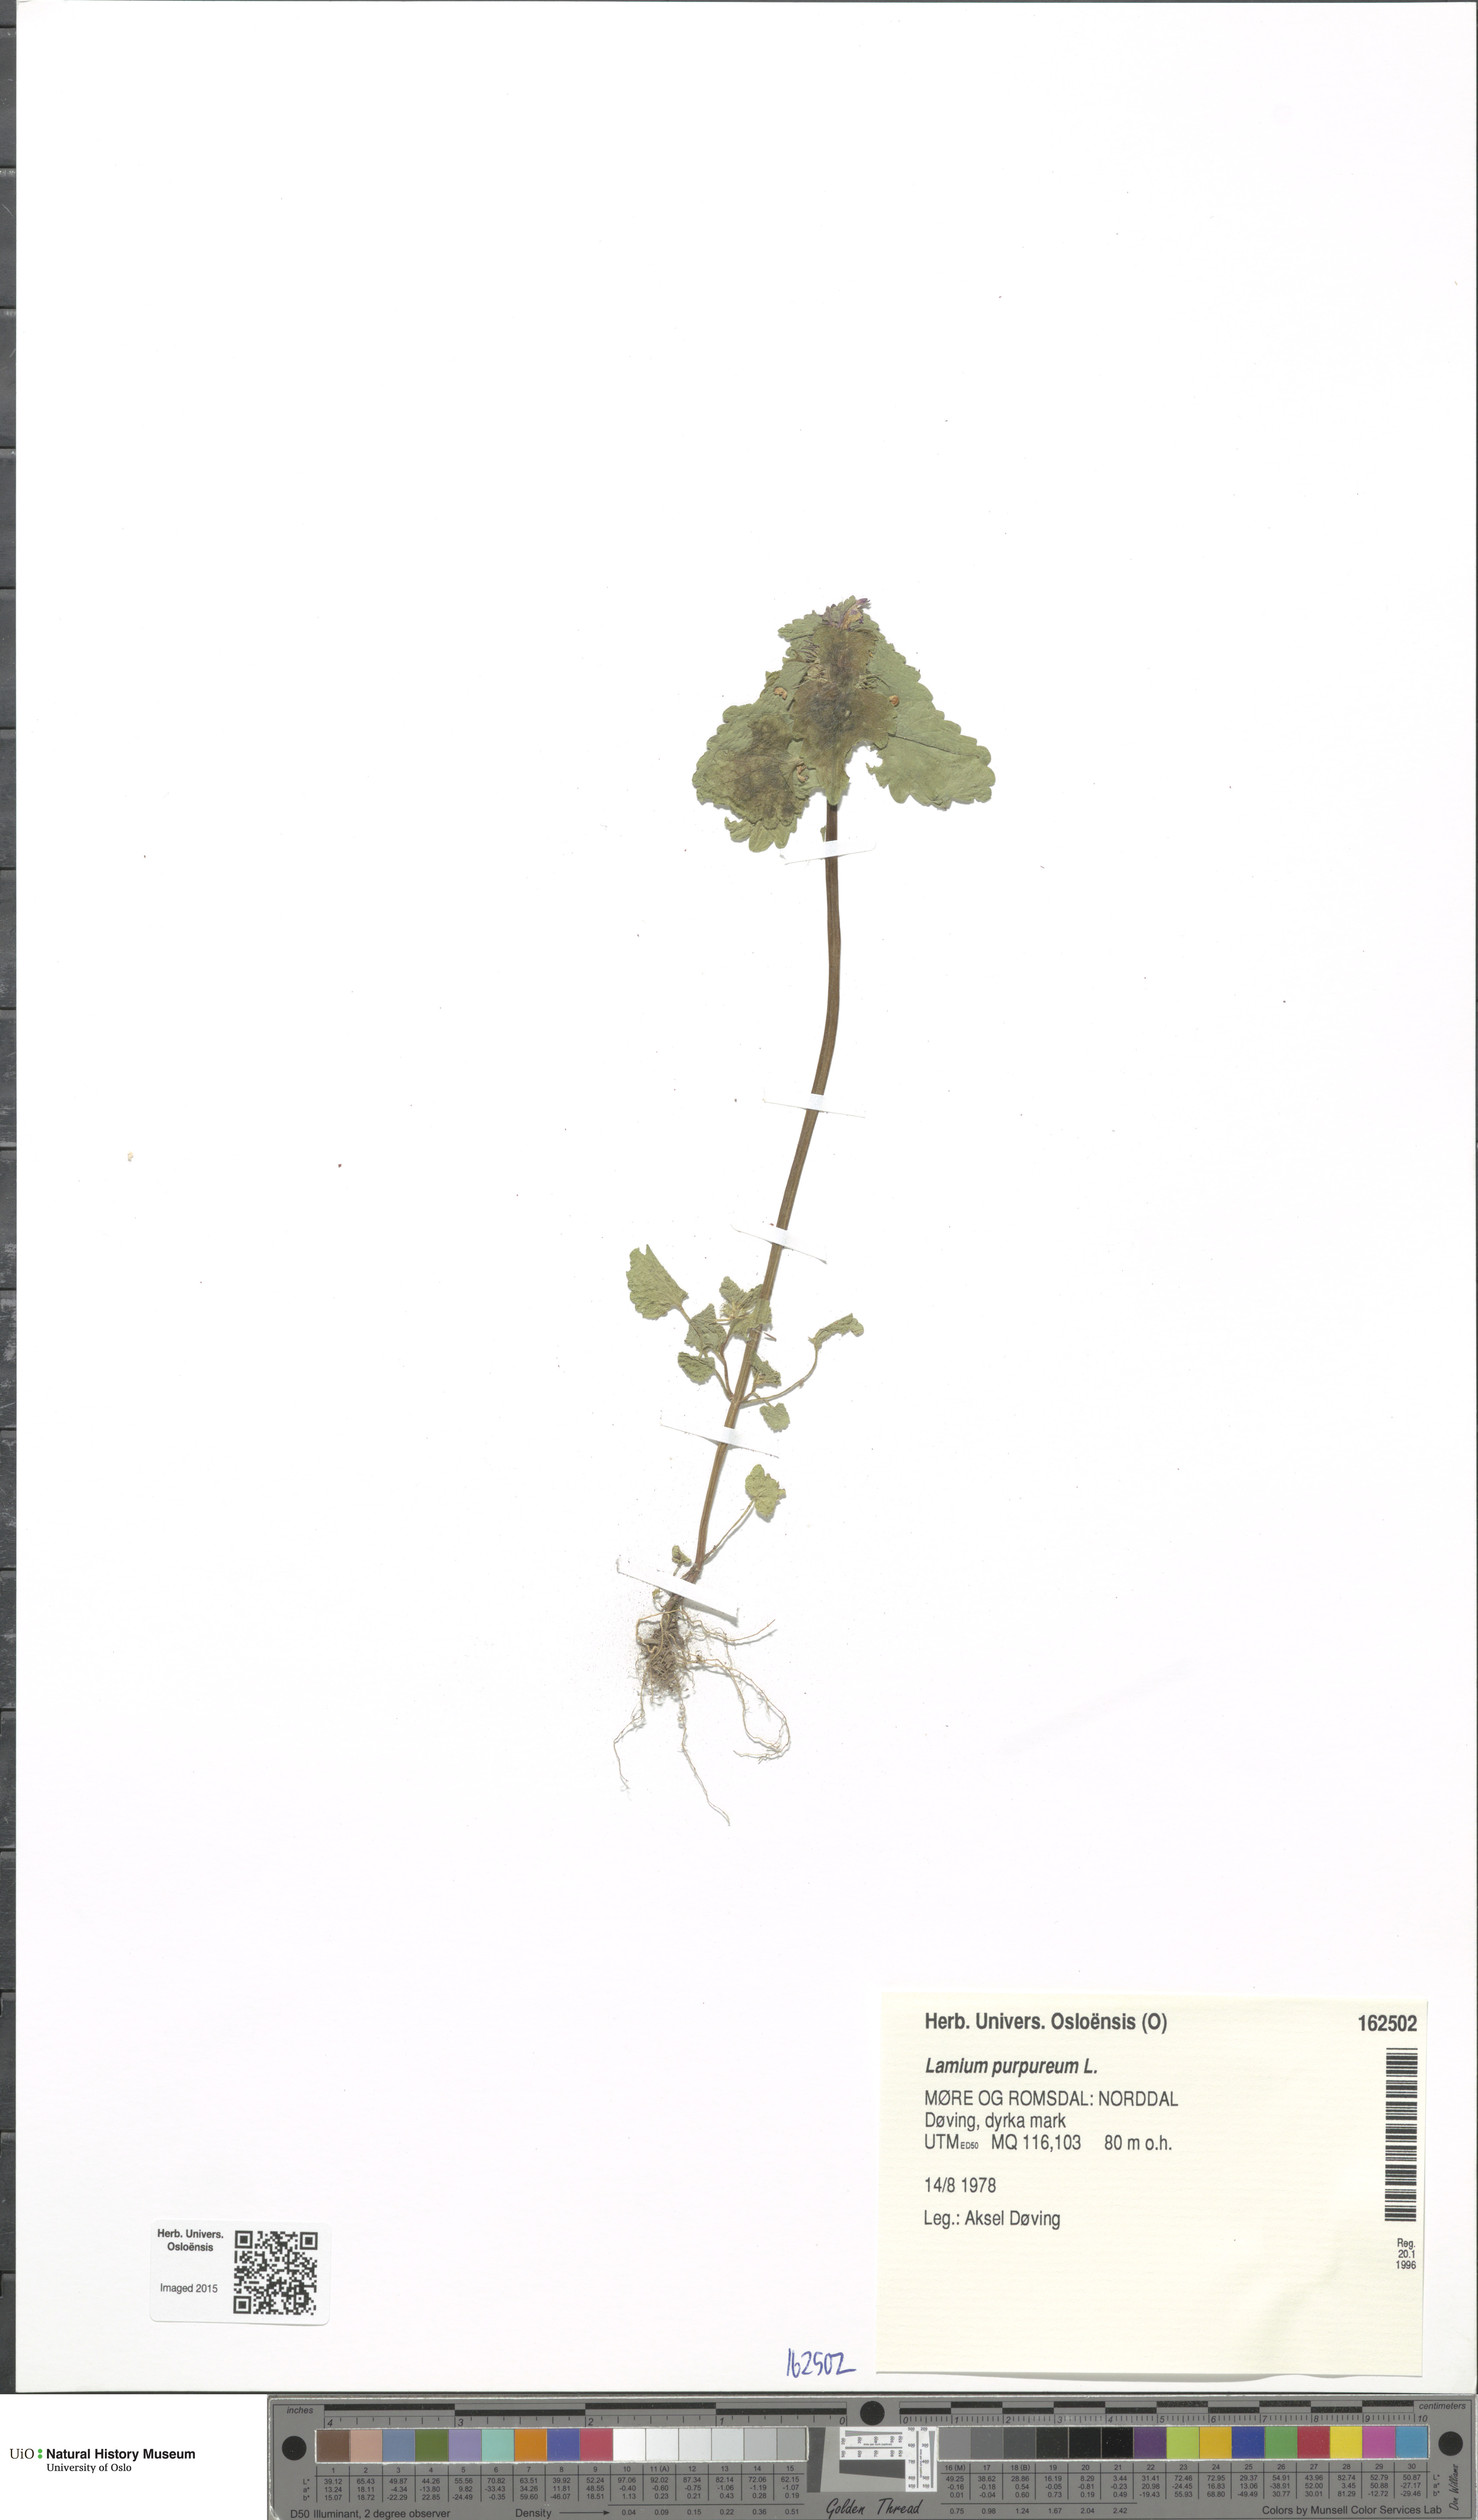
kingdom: Plantae
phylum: Tracheophyta
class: Magnoliopsida
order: Lamiales
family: Lamiaceae
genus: Lamium
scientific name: Lamium purpureum
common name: Red dead-nettle
